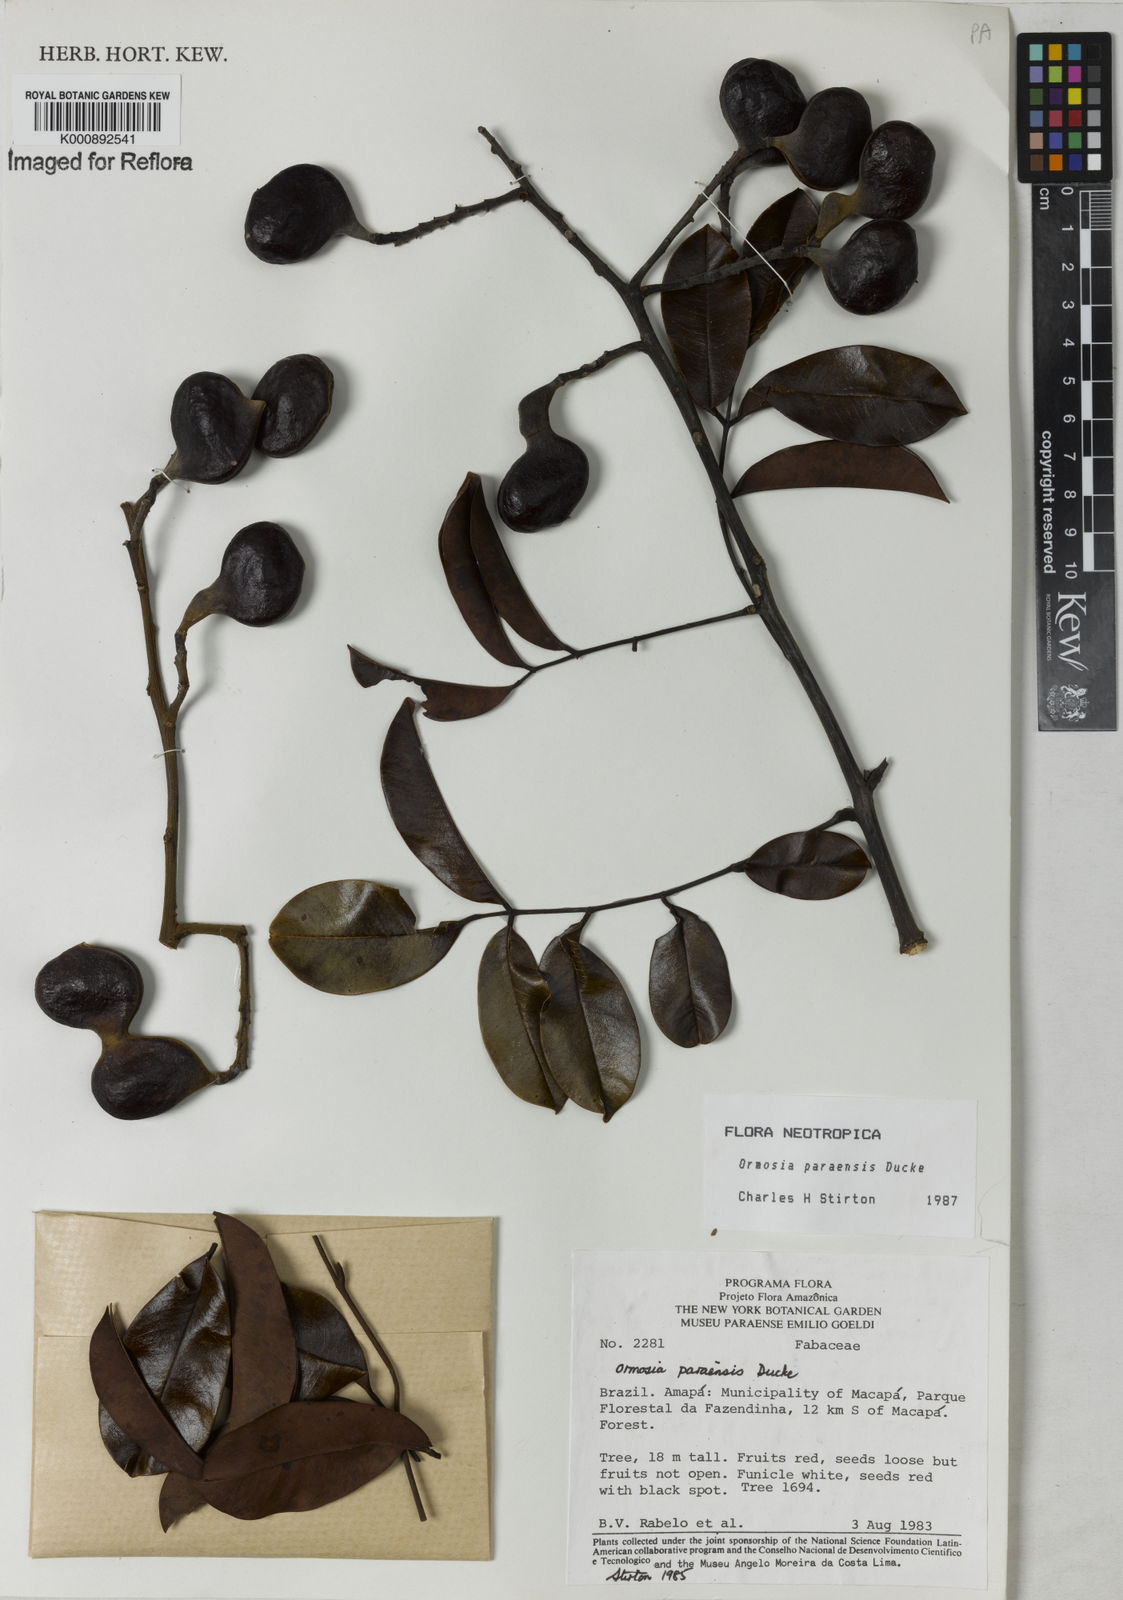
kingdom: Plantae
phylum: Tracheophyta
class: Magnoliopsida
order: Fabales
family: Fabaceae
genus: Ormosia
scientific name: Ormosia paraensis
